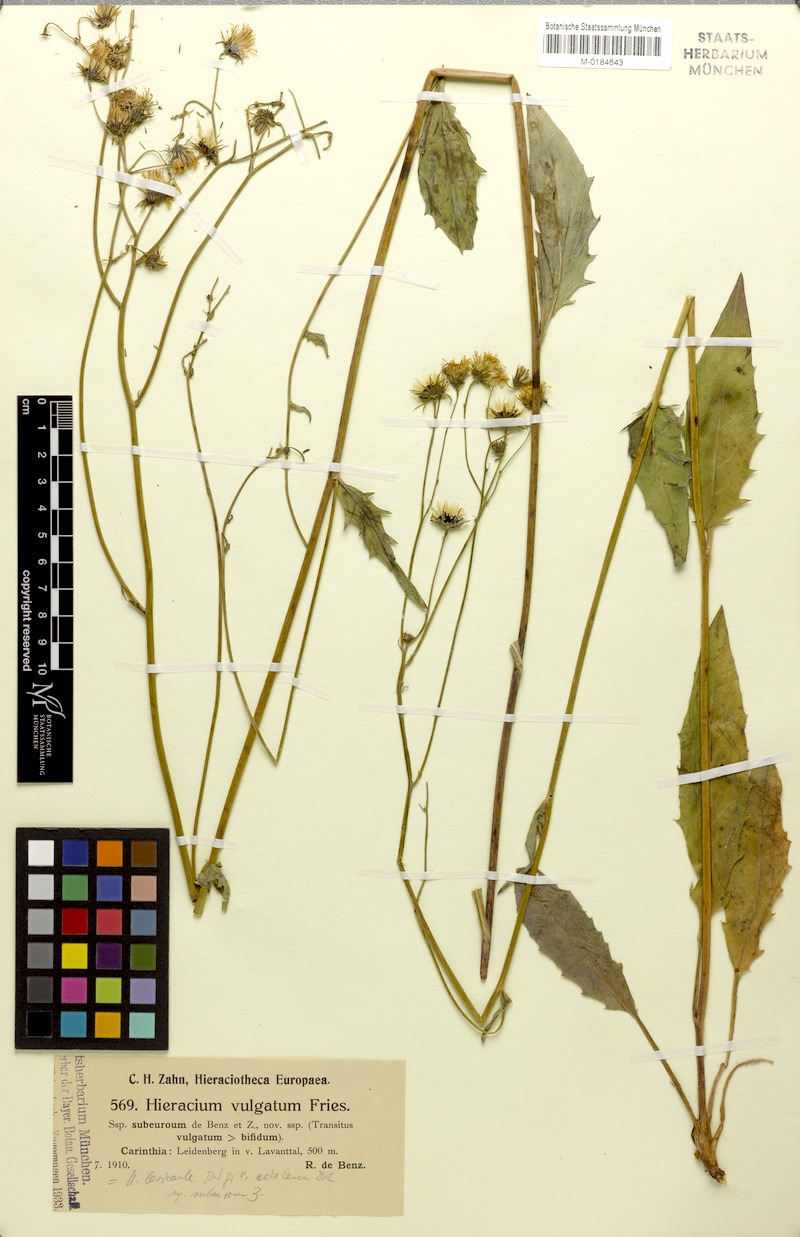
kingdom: Plantae
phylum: Tracheophyta
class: Magnoliopsida
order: Asterales
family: Asteraceae
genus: Hieracium
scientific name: Hieracium lachenalii
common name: Common hawkweed
